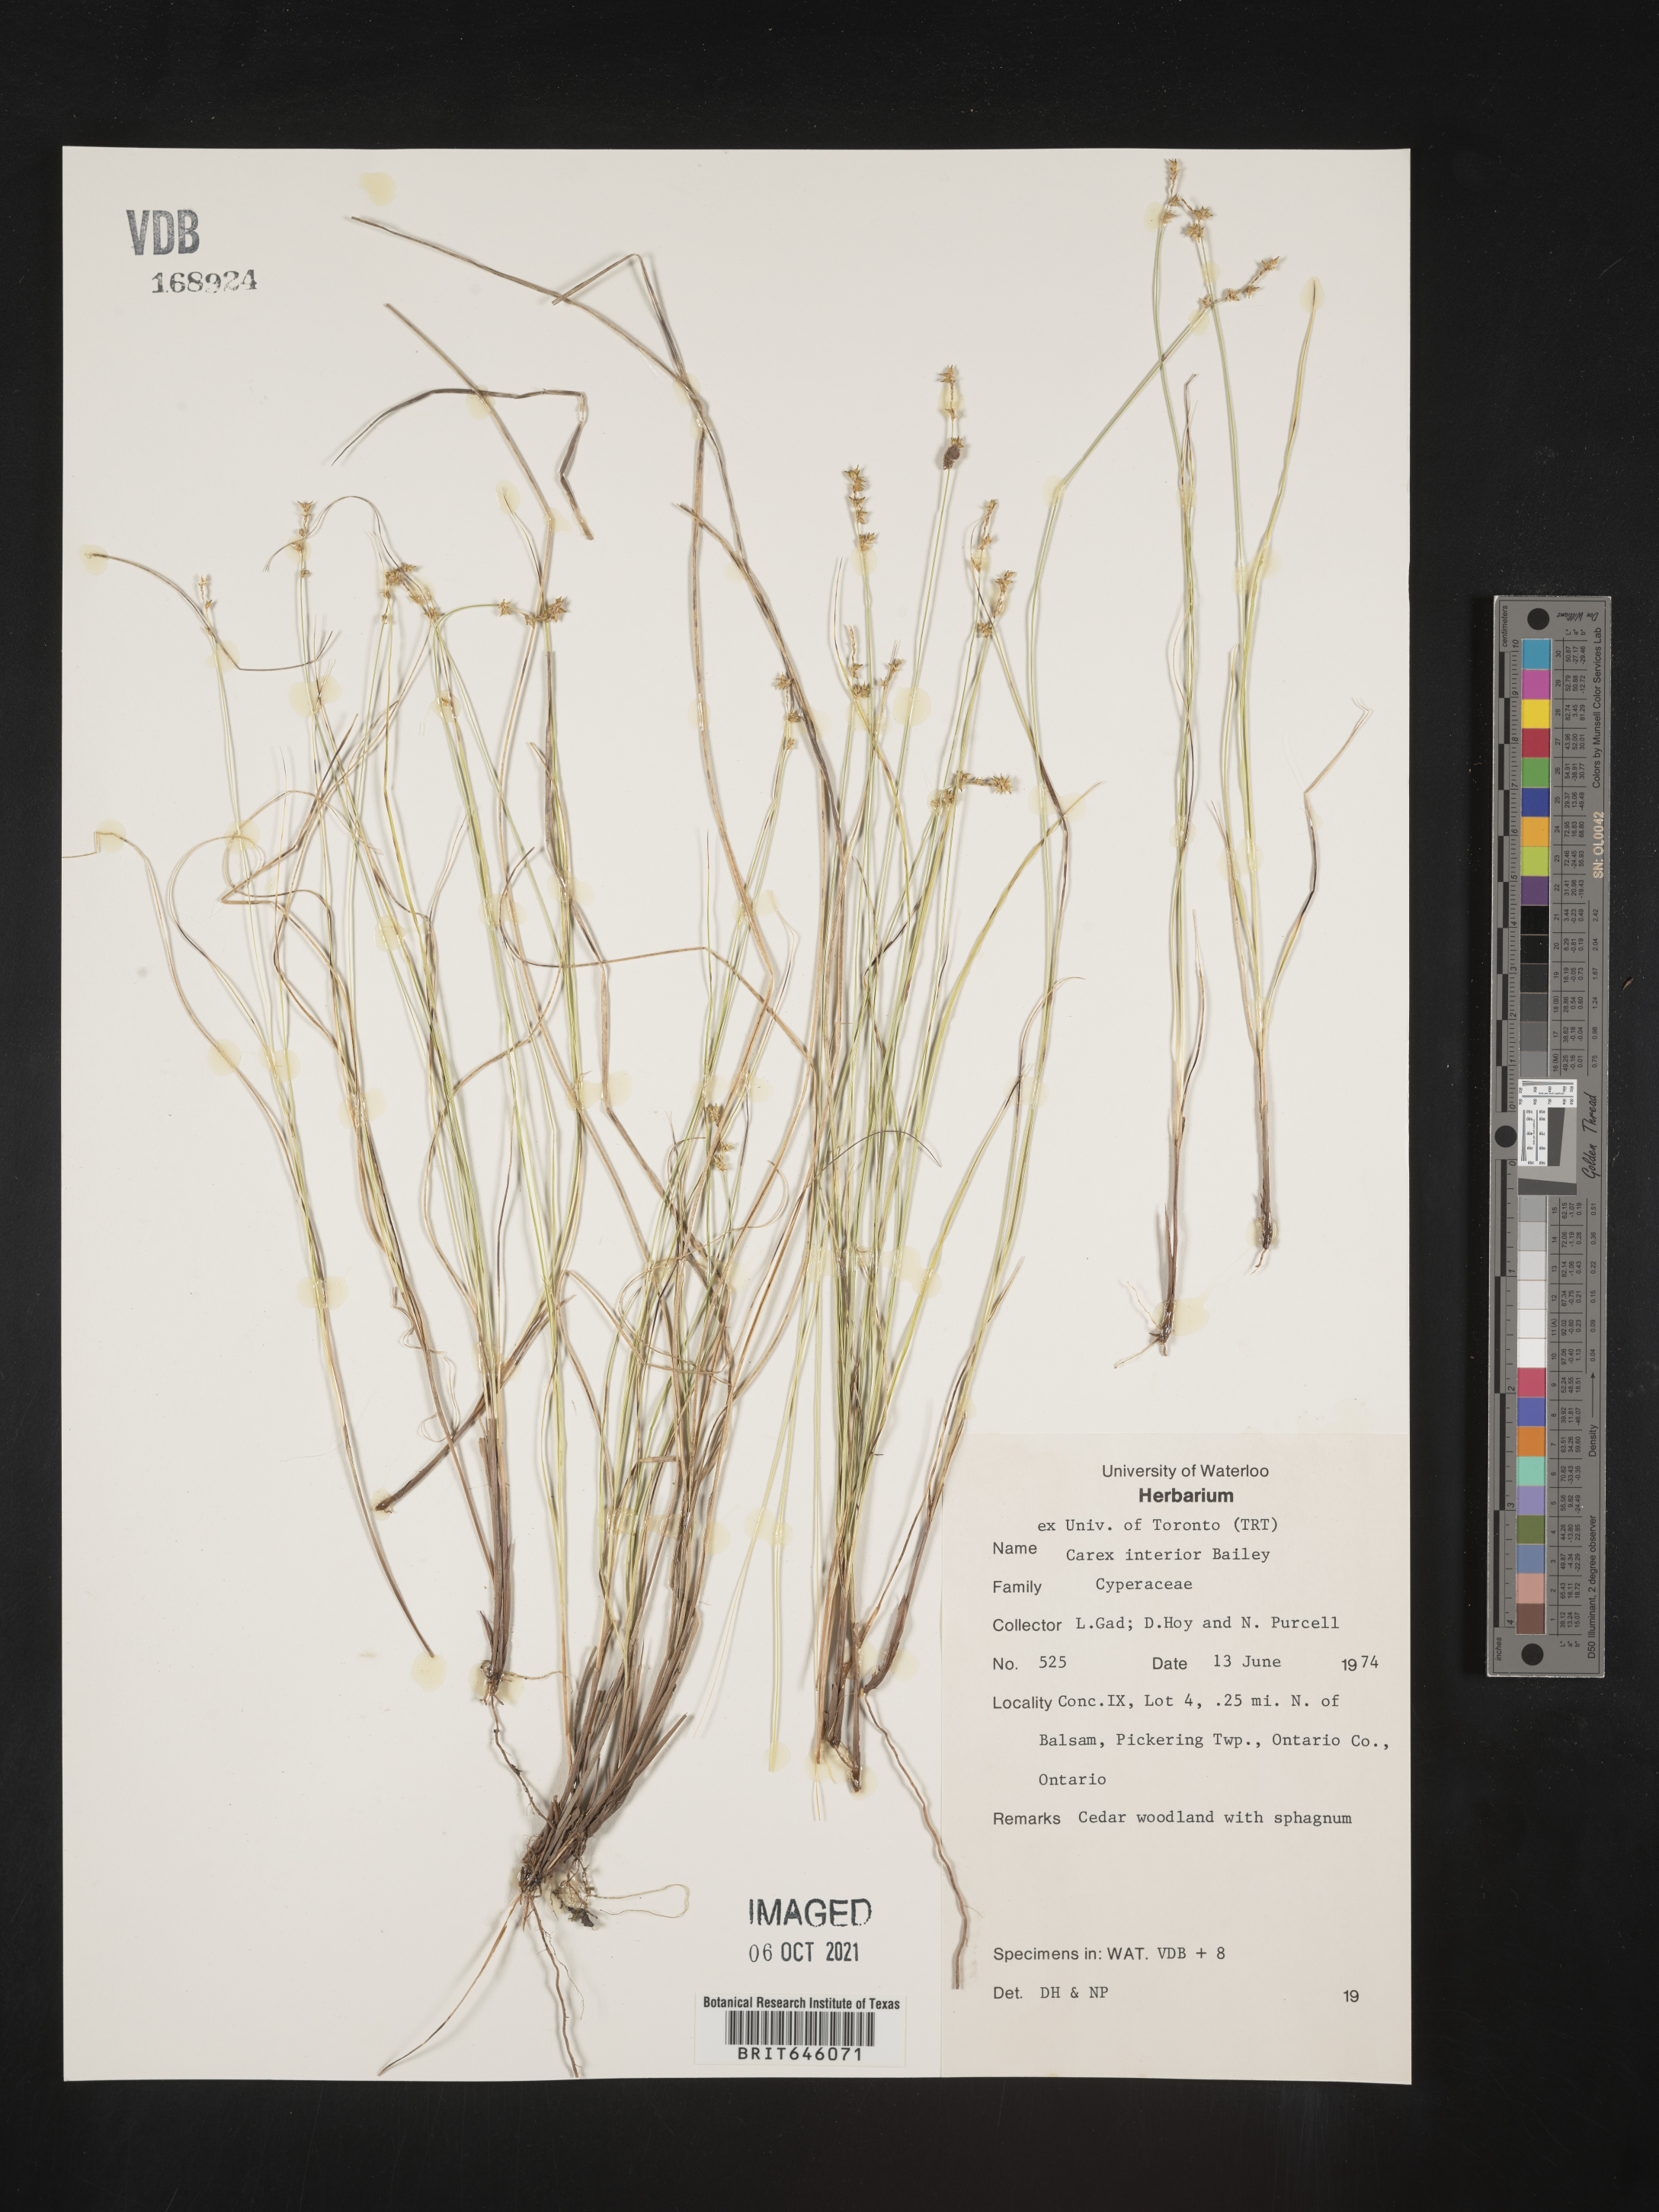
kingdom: Plantae
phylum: Tracheophyta
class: Liliopsida
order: Poales
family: Cyperaceae
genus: Carex
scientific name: Carex interior
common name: Inland sedge
